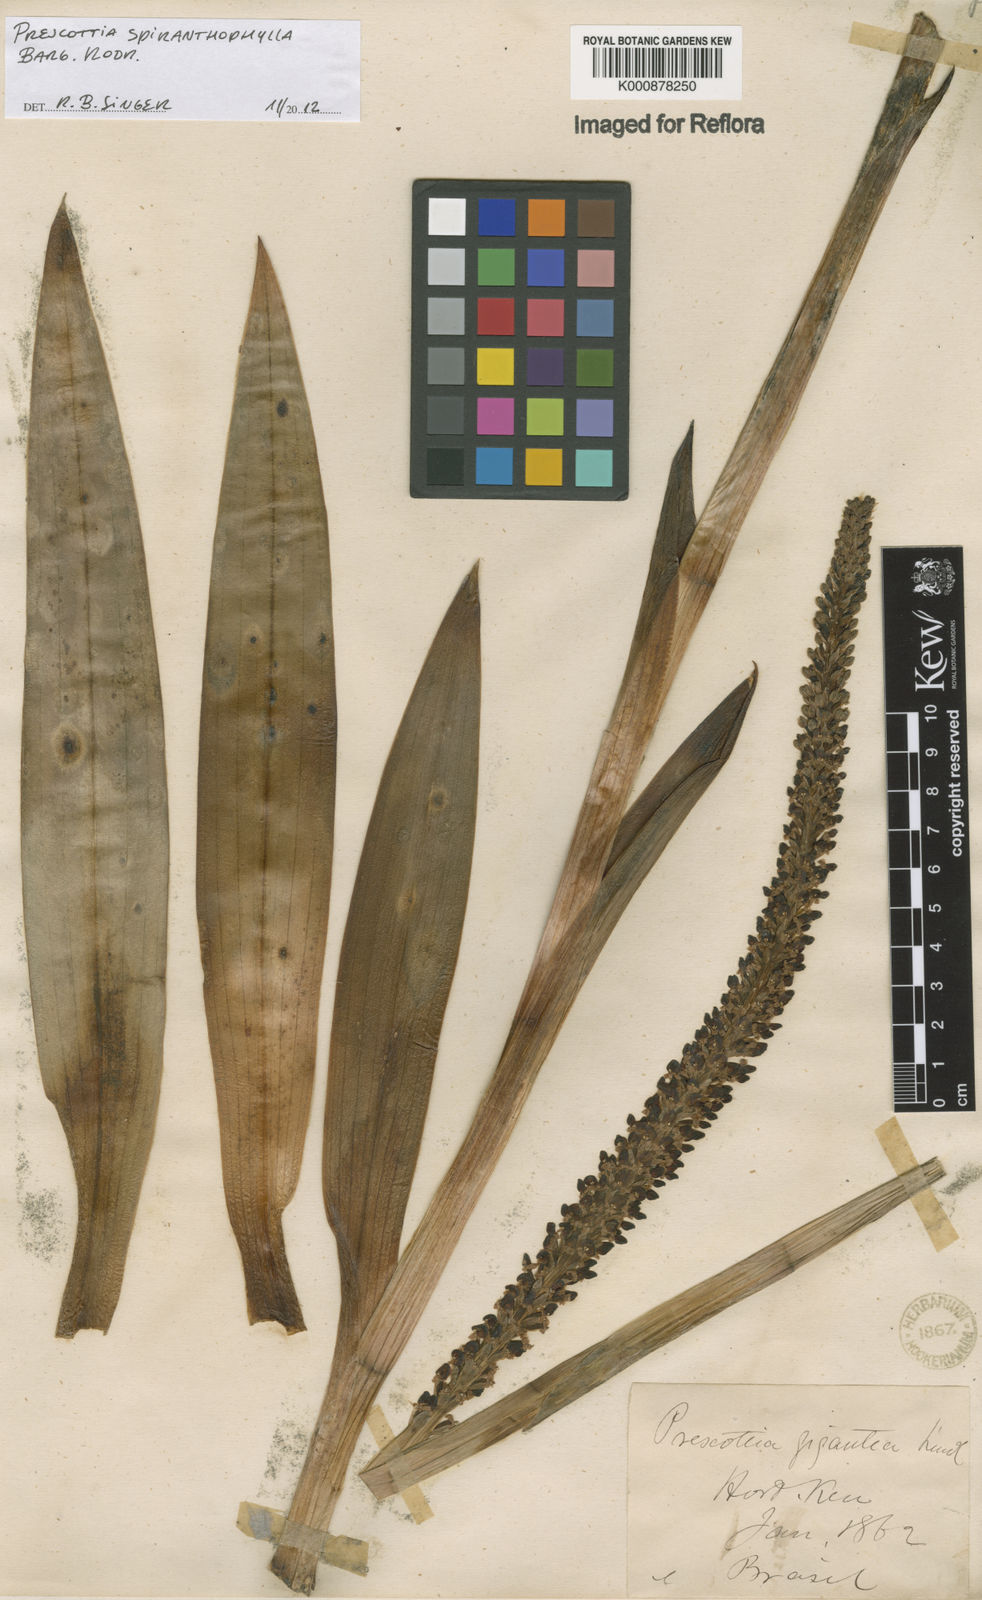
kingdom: Plantae
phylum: Tracheophyta
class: Liliopsida
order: Asparagales
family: Orchidaceae
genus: Prescottia
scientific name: Prescottia spiranthophylla
